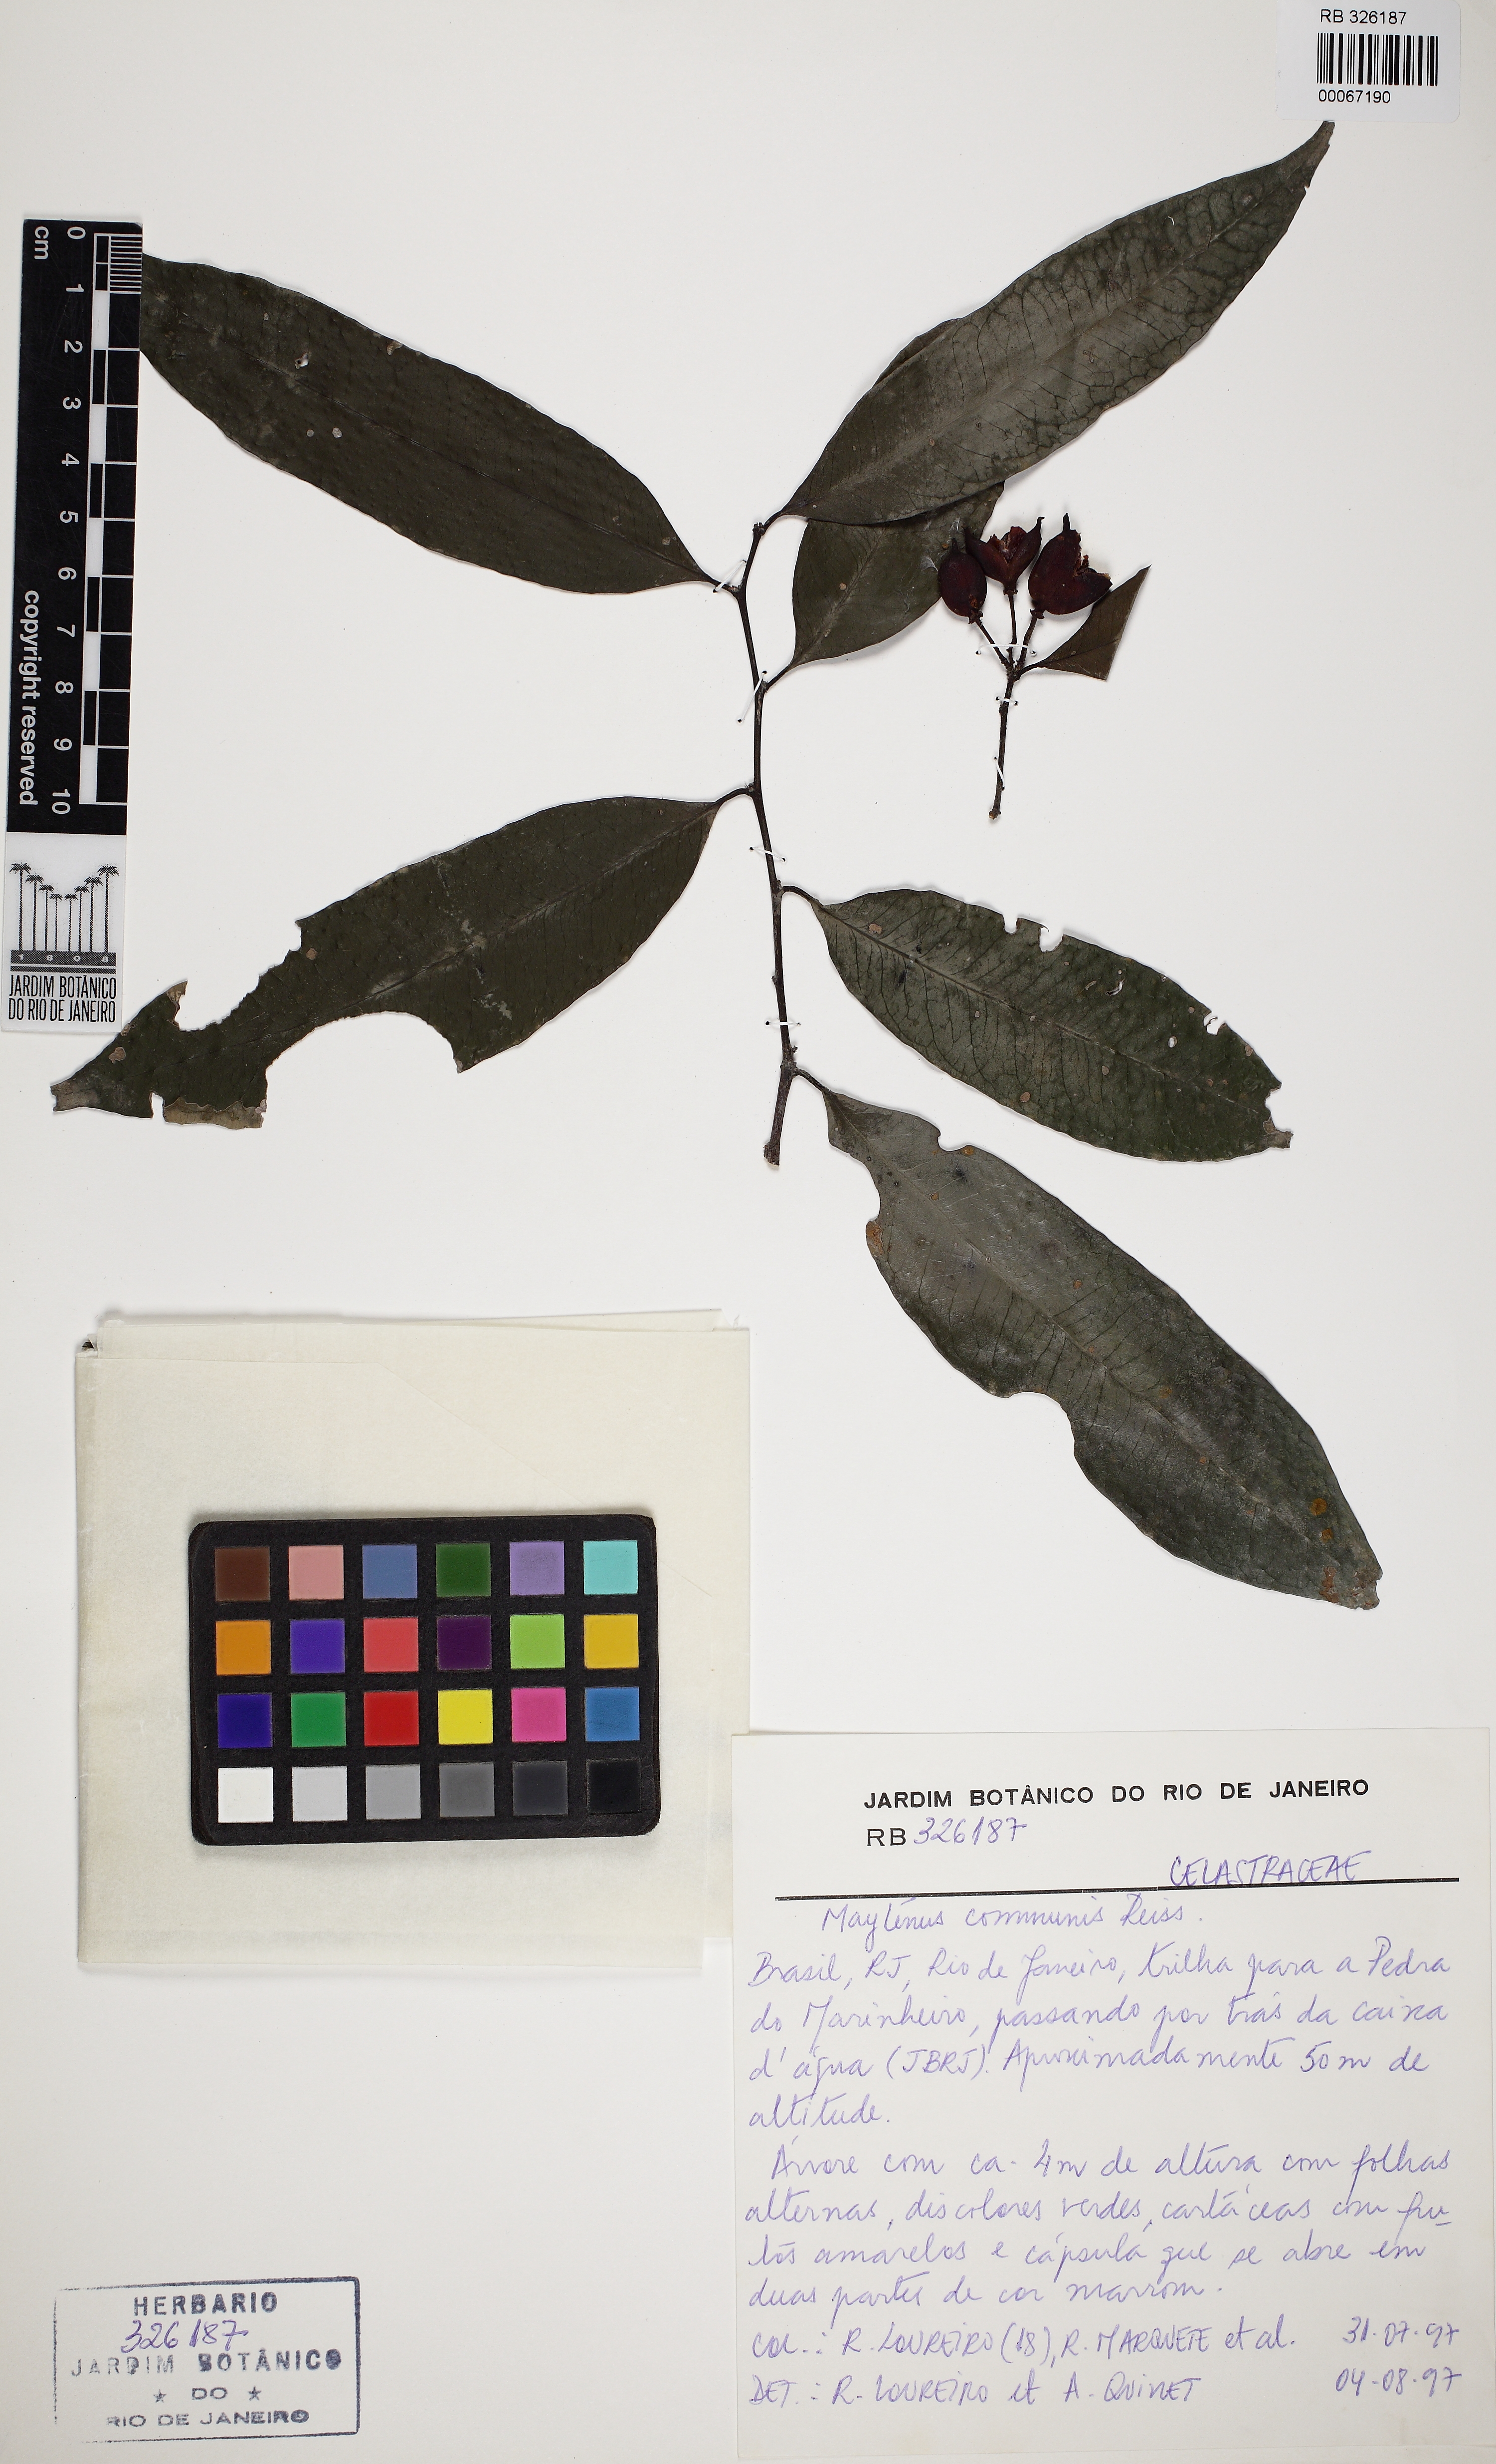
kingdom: Plantae
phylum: Tracheophyta
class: Magnoliopsida
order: Celastrales
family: Celastraceae
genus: Monteverdia
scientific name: Monteverdia communis
